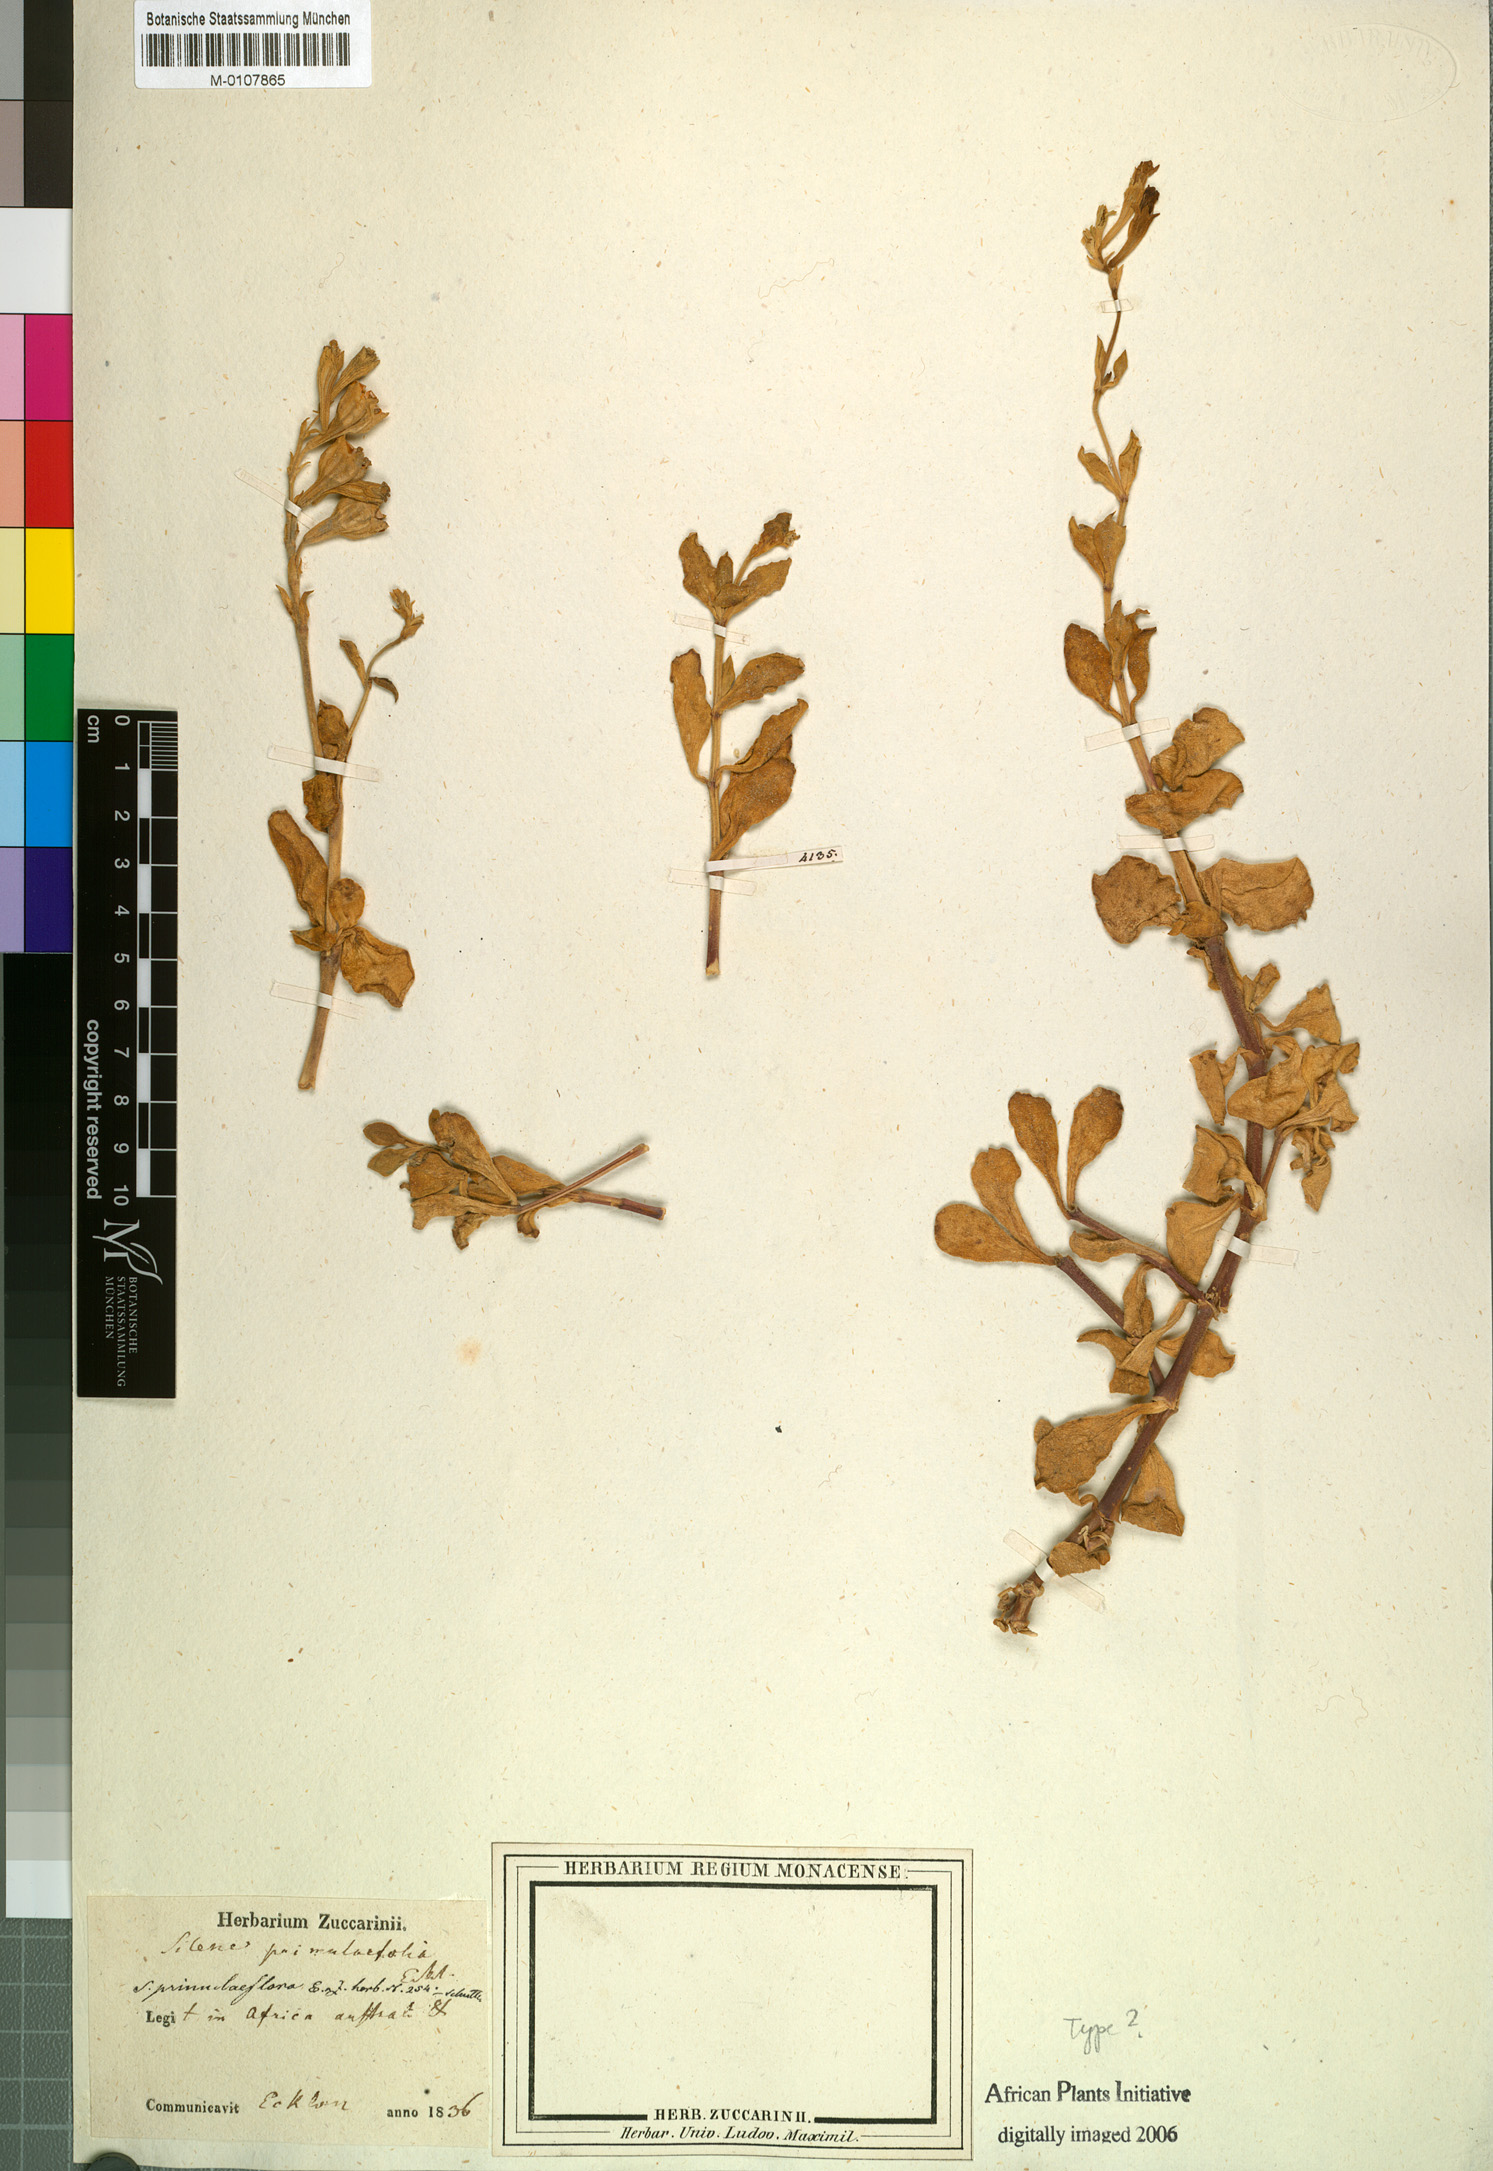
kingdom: Plantae
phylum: Tracheophyta
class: Magnoliopsida
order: Caryophyllales
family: Caryophyllaceae
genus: Silene
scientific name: Silene crassifolia
